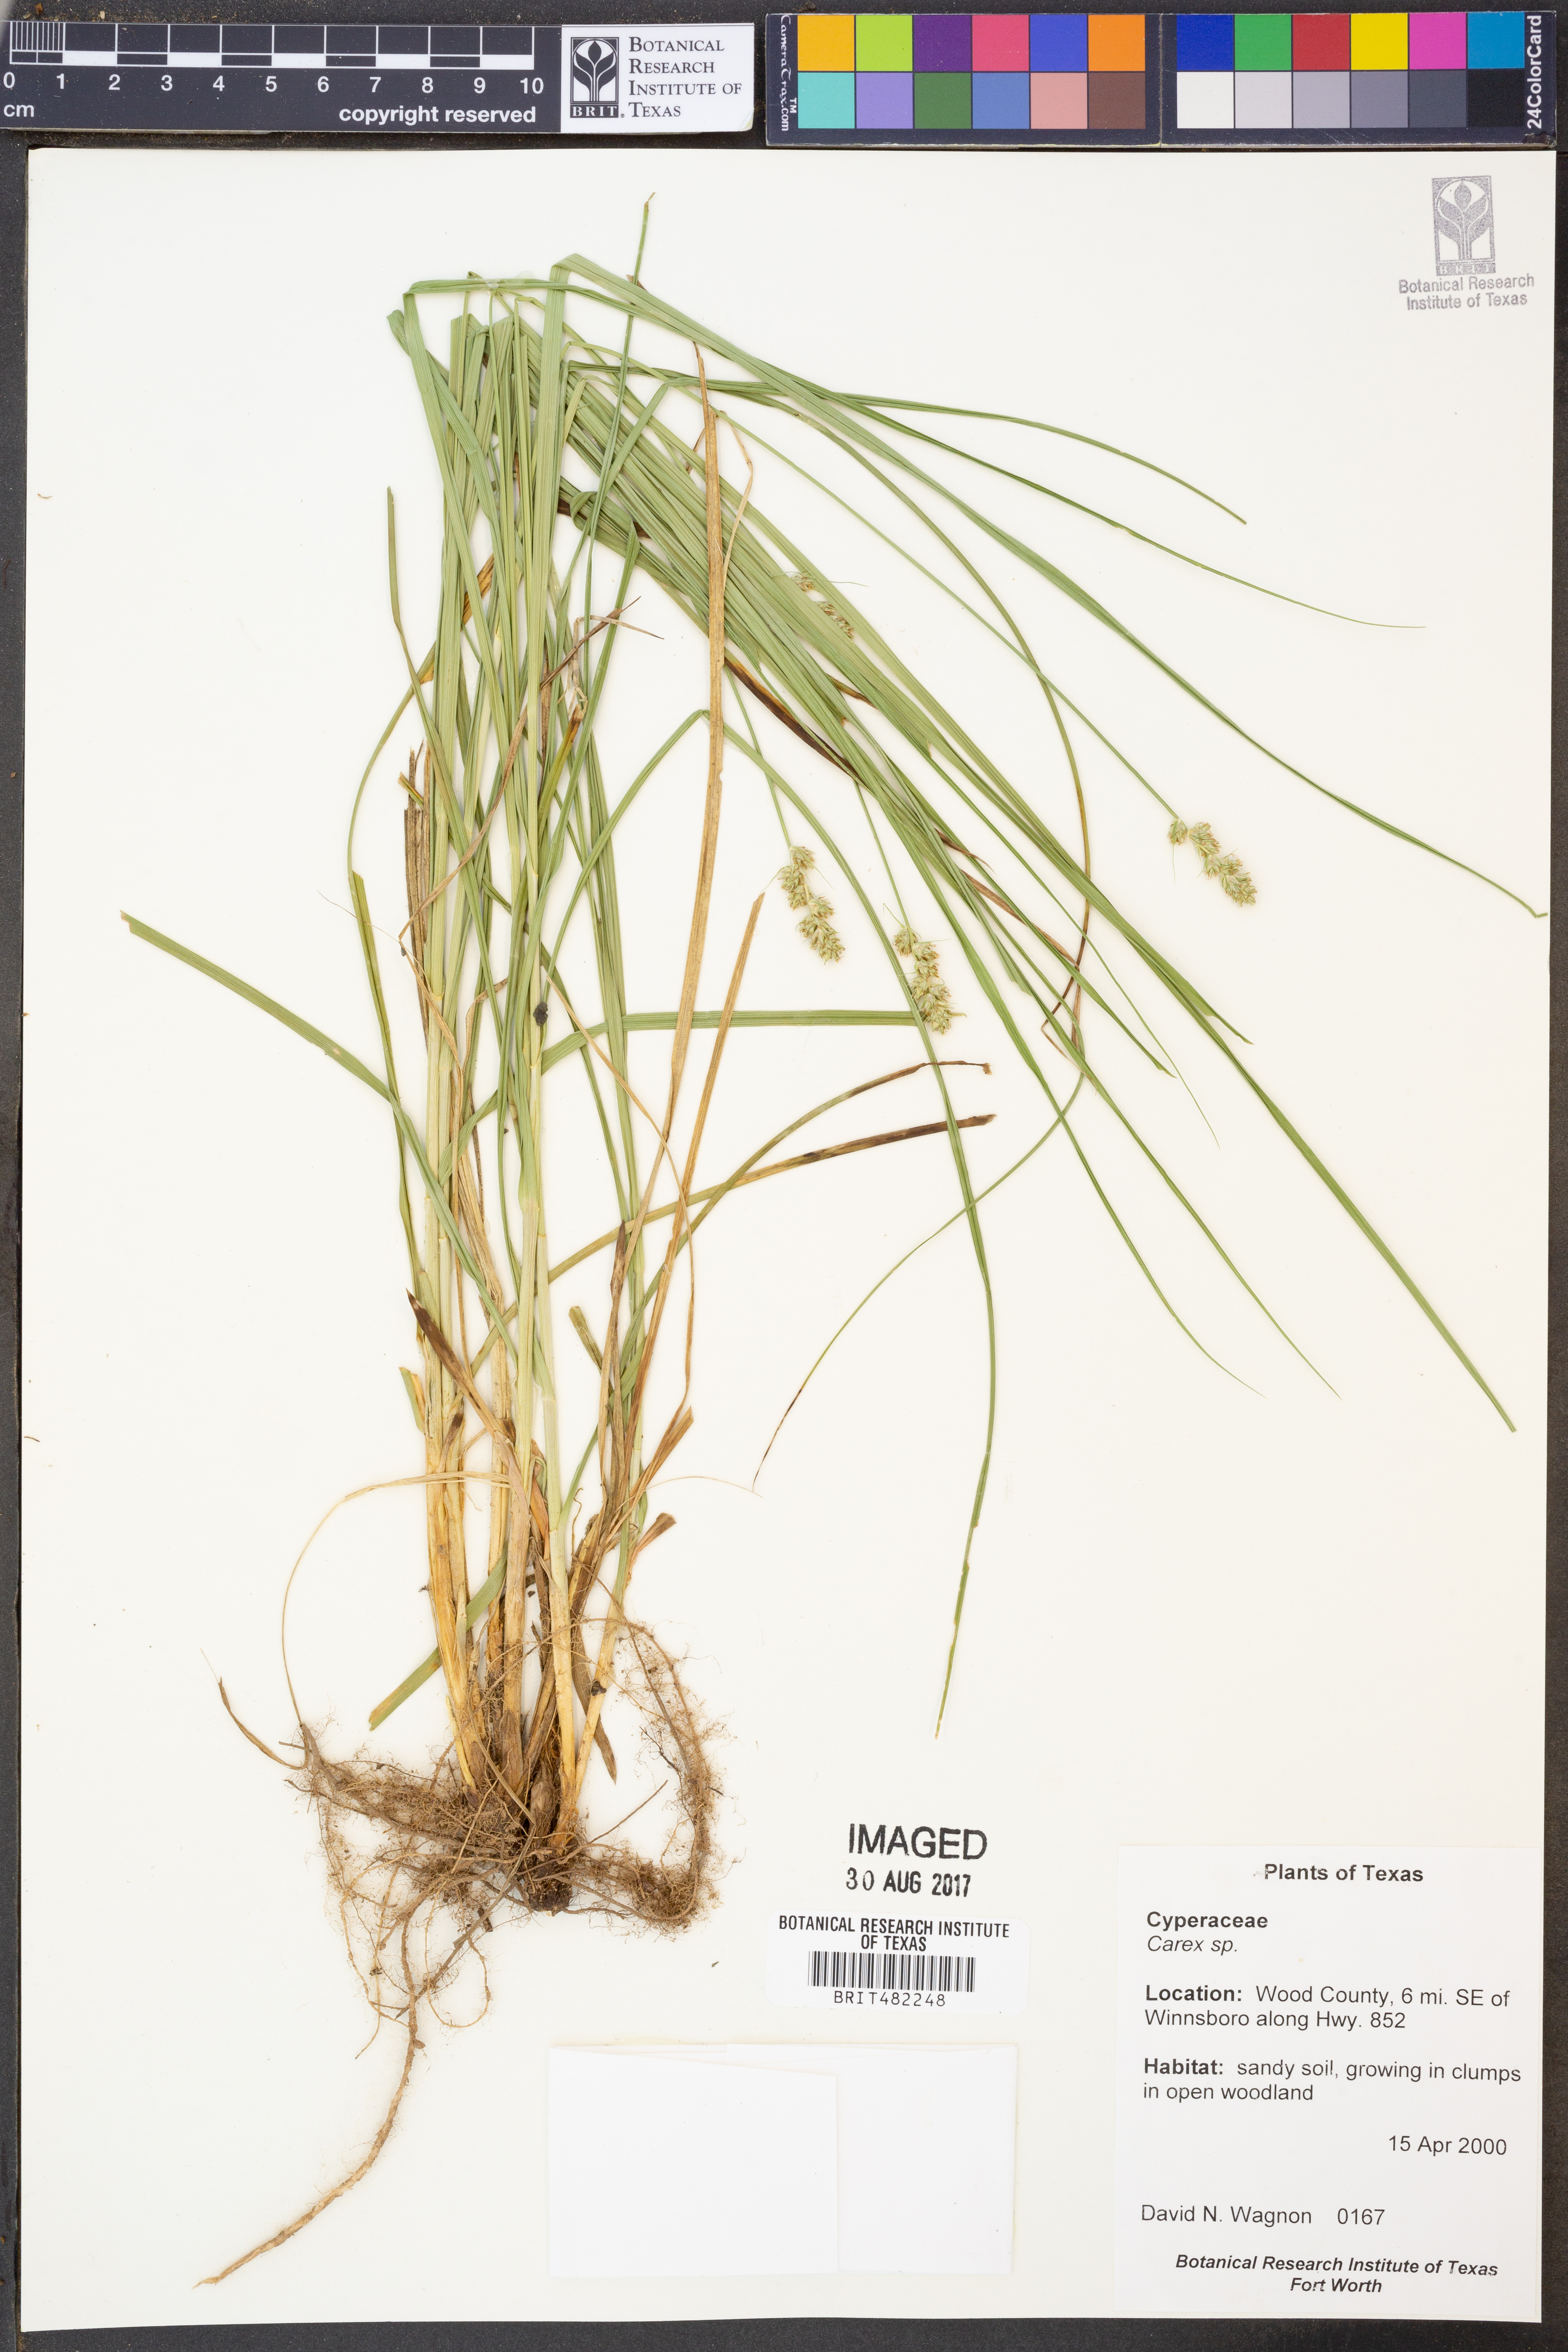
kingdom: Plantae
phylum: Tracheophyta
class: Liliopsida
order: Poales
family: Cyperaceae
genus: Carex
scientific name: Carex
